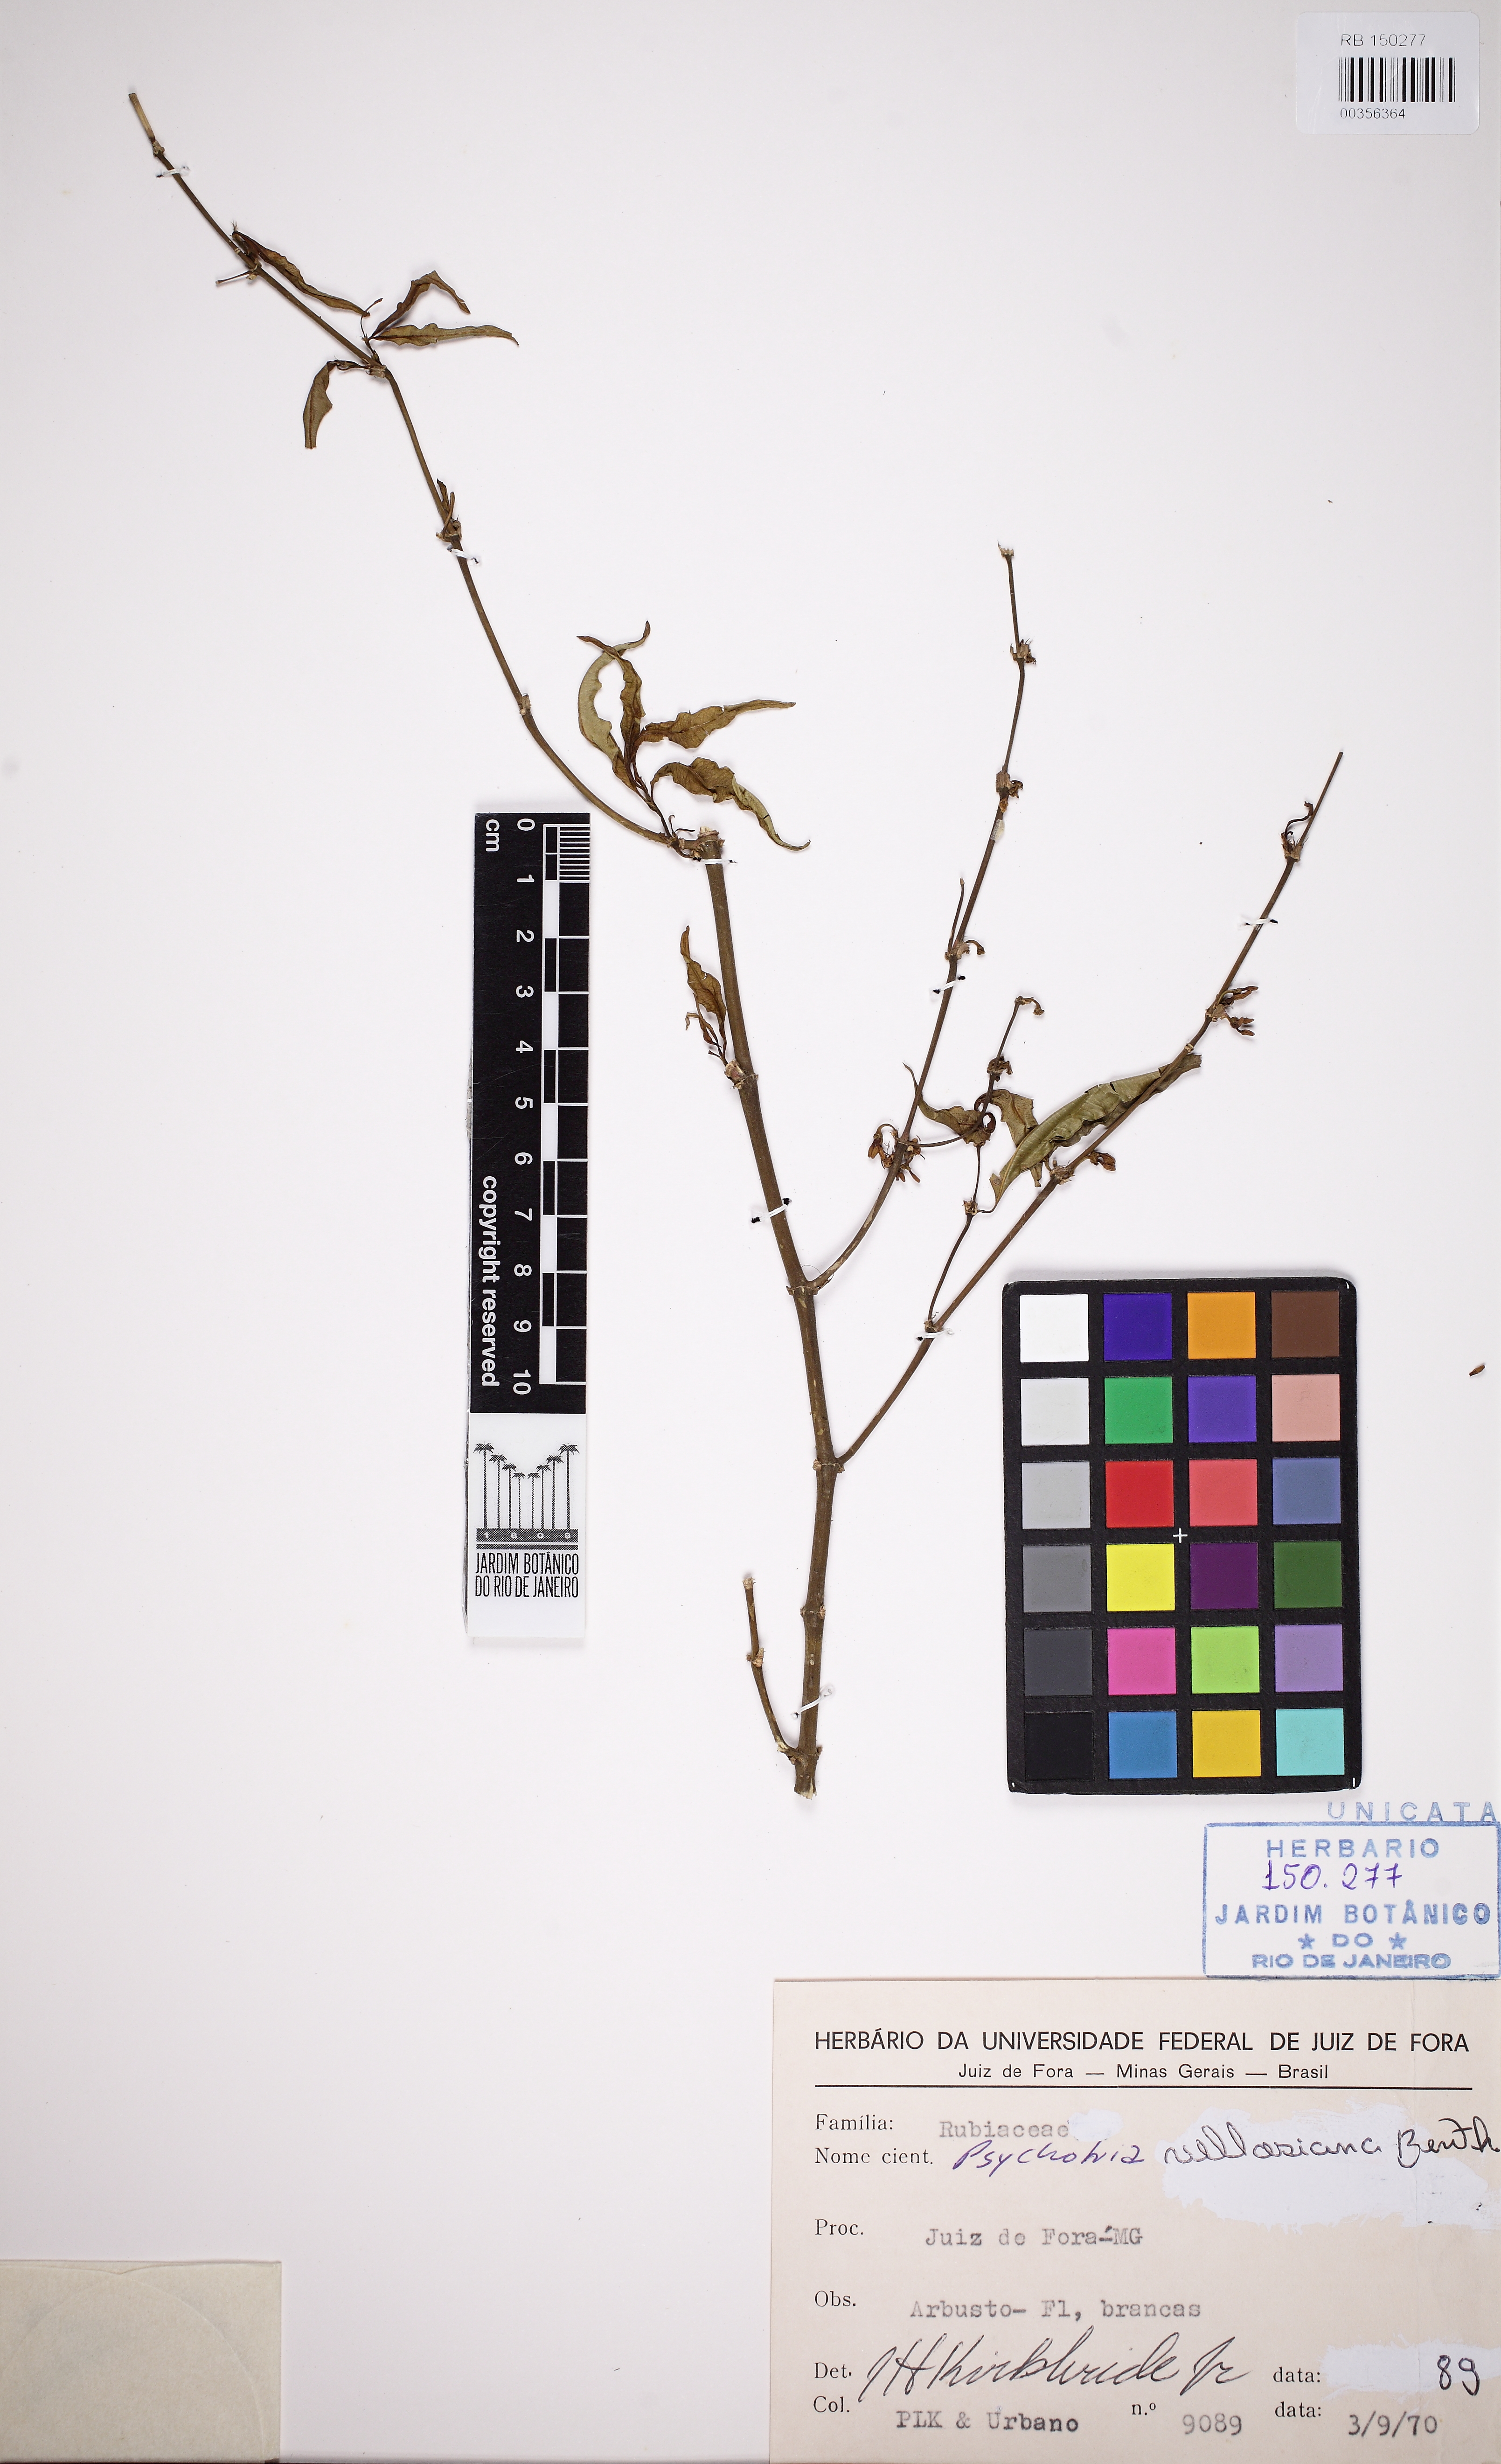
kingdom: Plantae
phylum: Tracheophyta
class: Magnoliopsida
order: Gentianales
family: Rubiaceae
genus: Palicourea
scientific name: Palicourea sessilis
